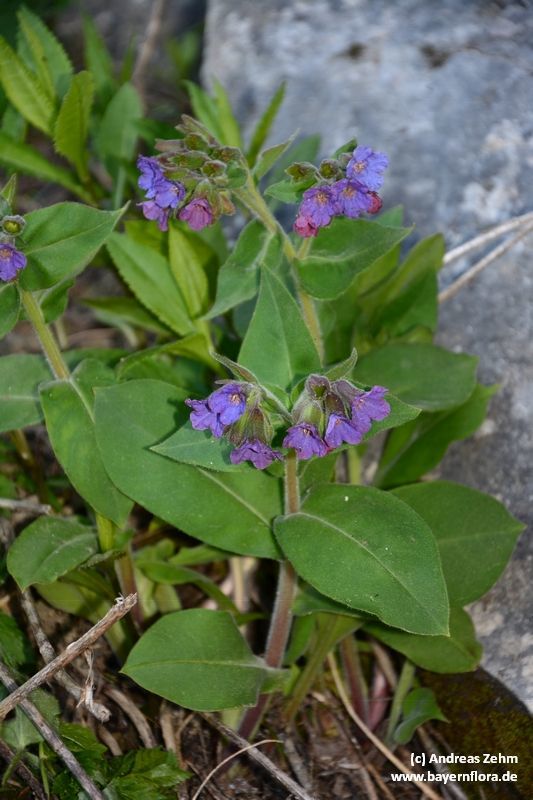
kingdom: Plantae
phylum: Tracheophyta
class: Magnoliopsida
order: Boraginales
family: Boraginaceae
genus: Pulmonaria
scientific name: Pulmonaria mollis
